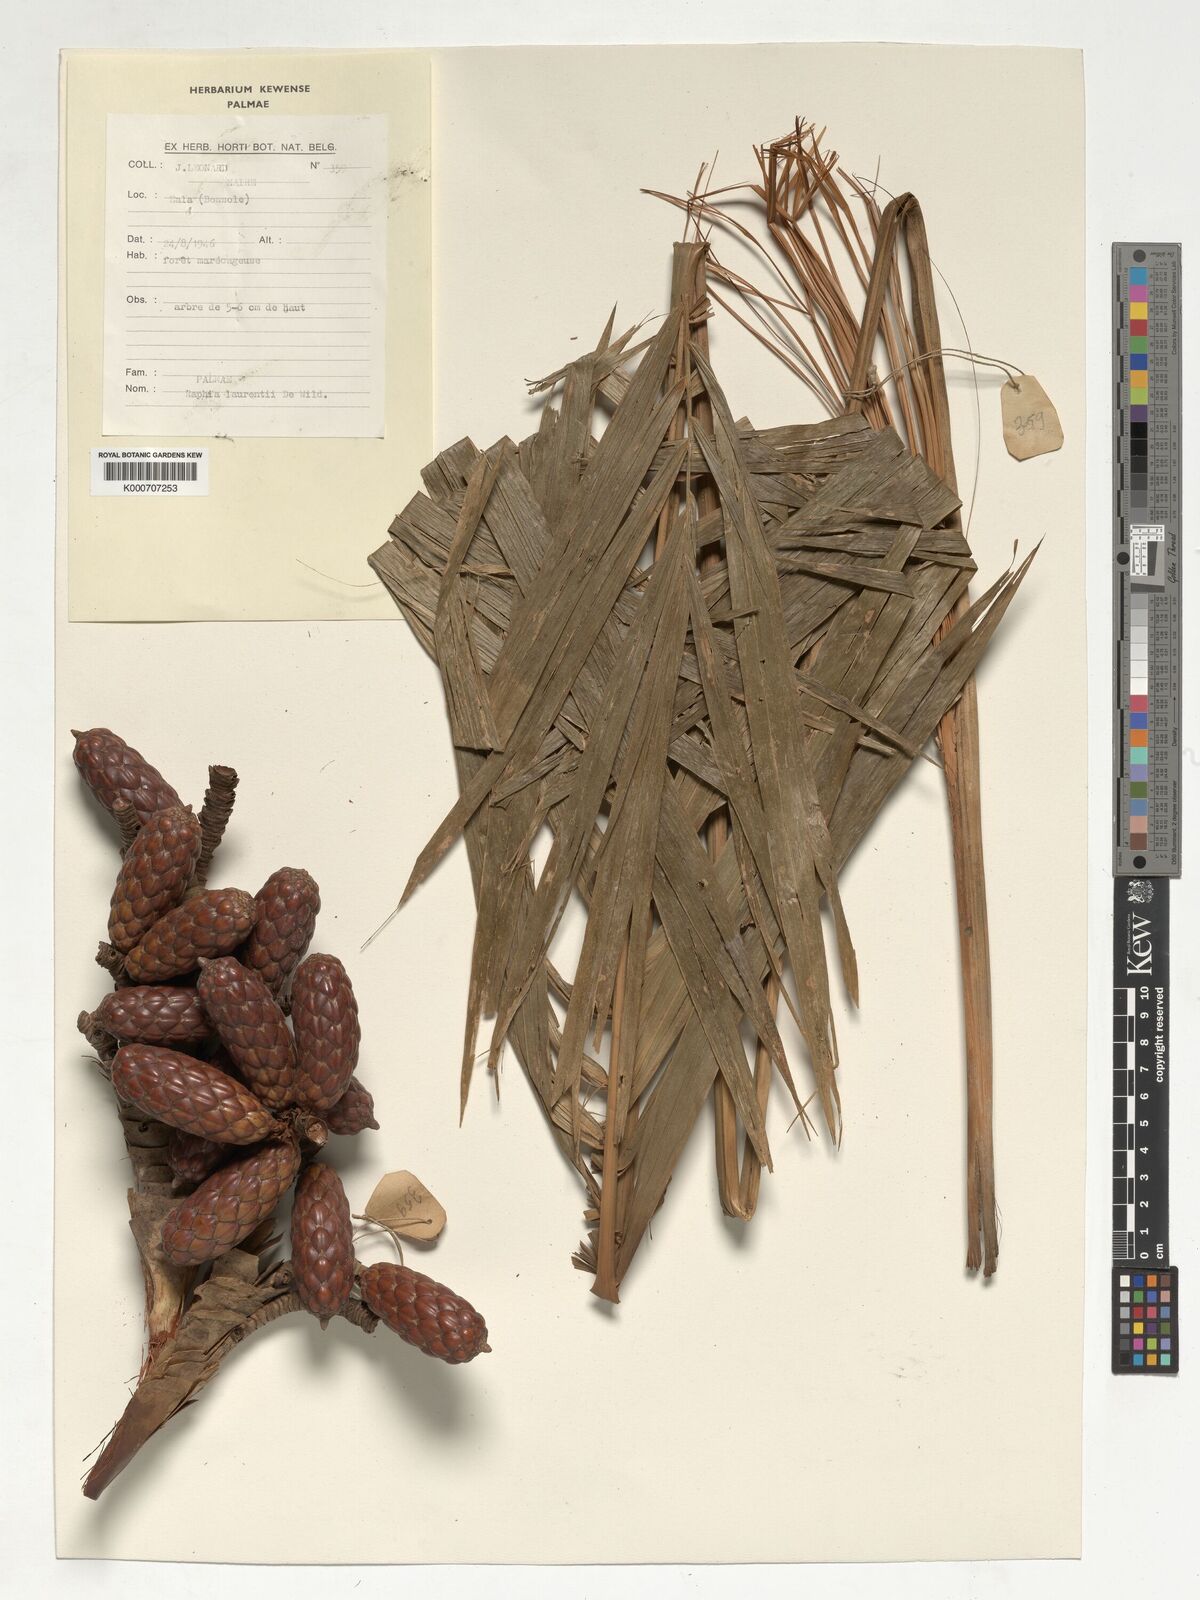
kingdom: Plantae
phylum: Tracheophyta
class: Liliopsida
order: Arecales
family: Arecaceae
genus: Raphia
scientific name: Raphia laurentii
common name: Raphia palm
